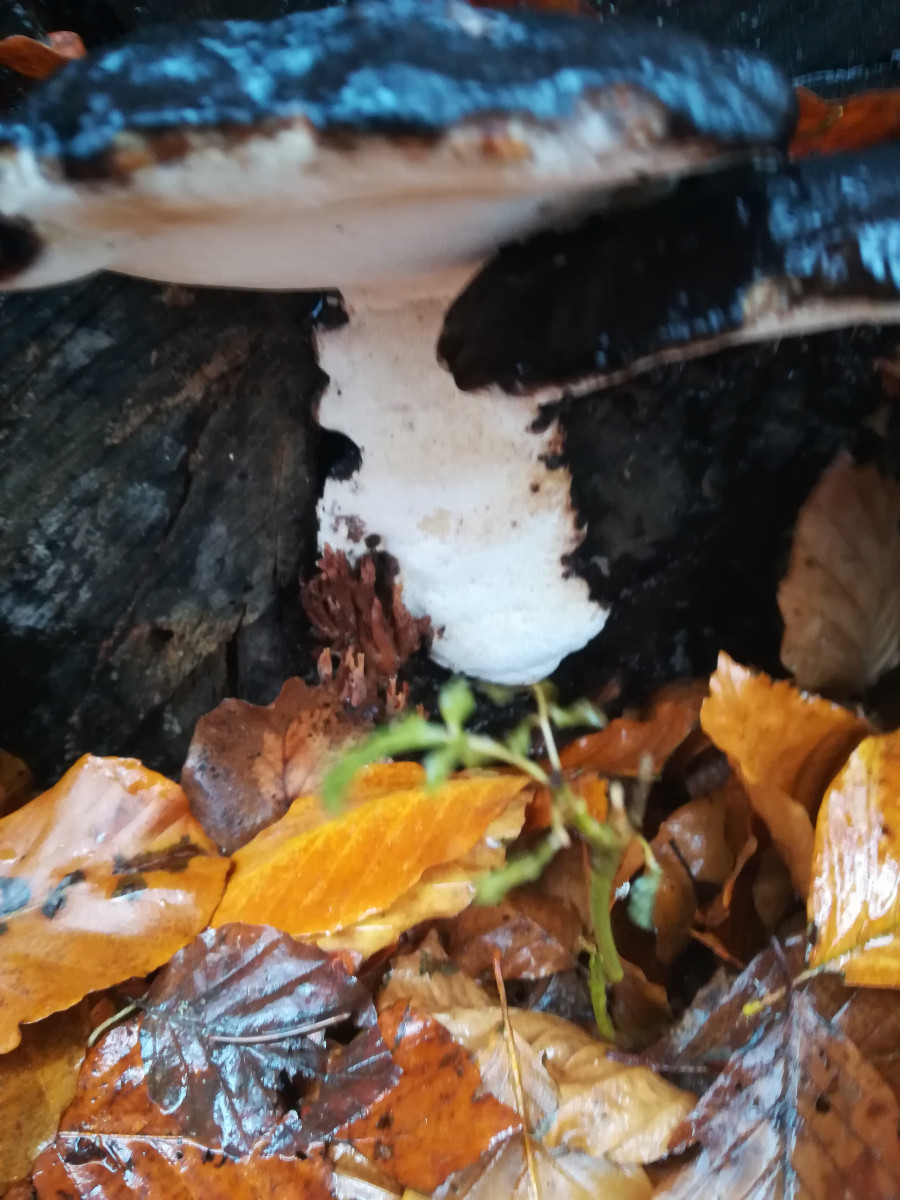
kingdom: Fungi
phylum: Basidiomycota
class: Agaricomycetes
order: Polyporales
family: Ischnodermataceae
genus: Ischnoderma
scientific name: Ischnoderma resinosum
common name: løv-tjæreporesvamp
